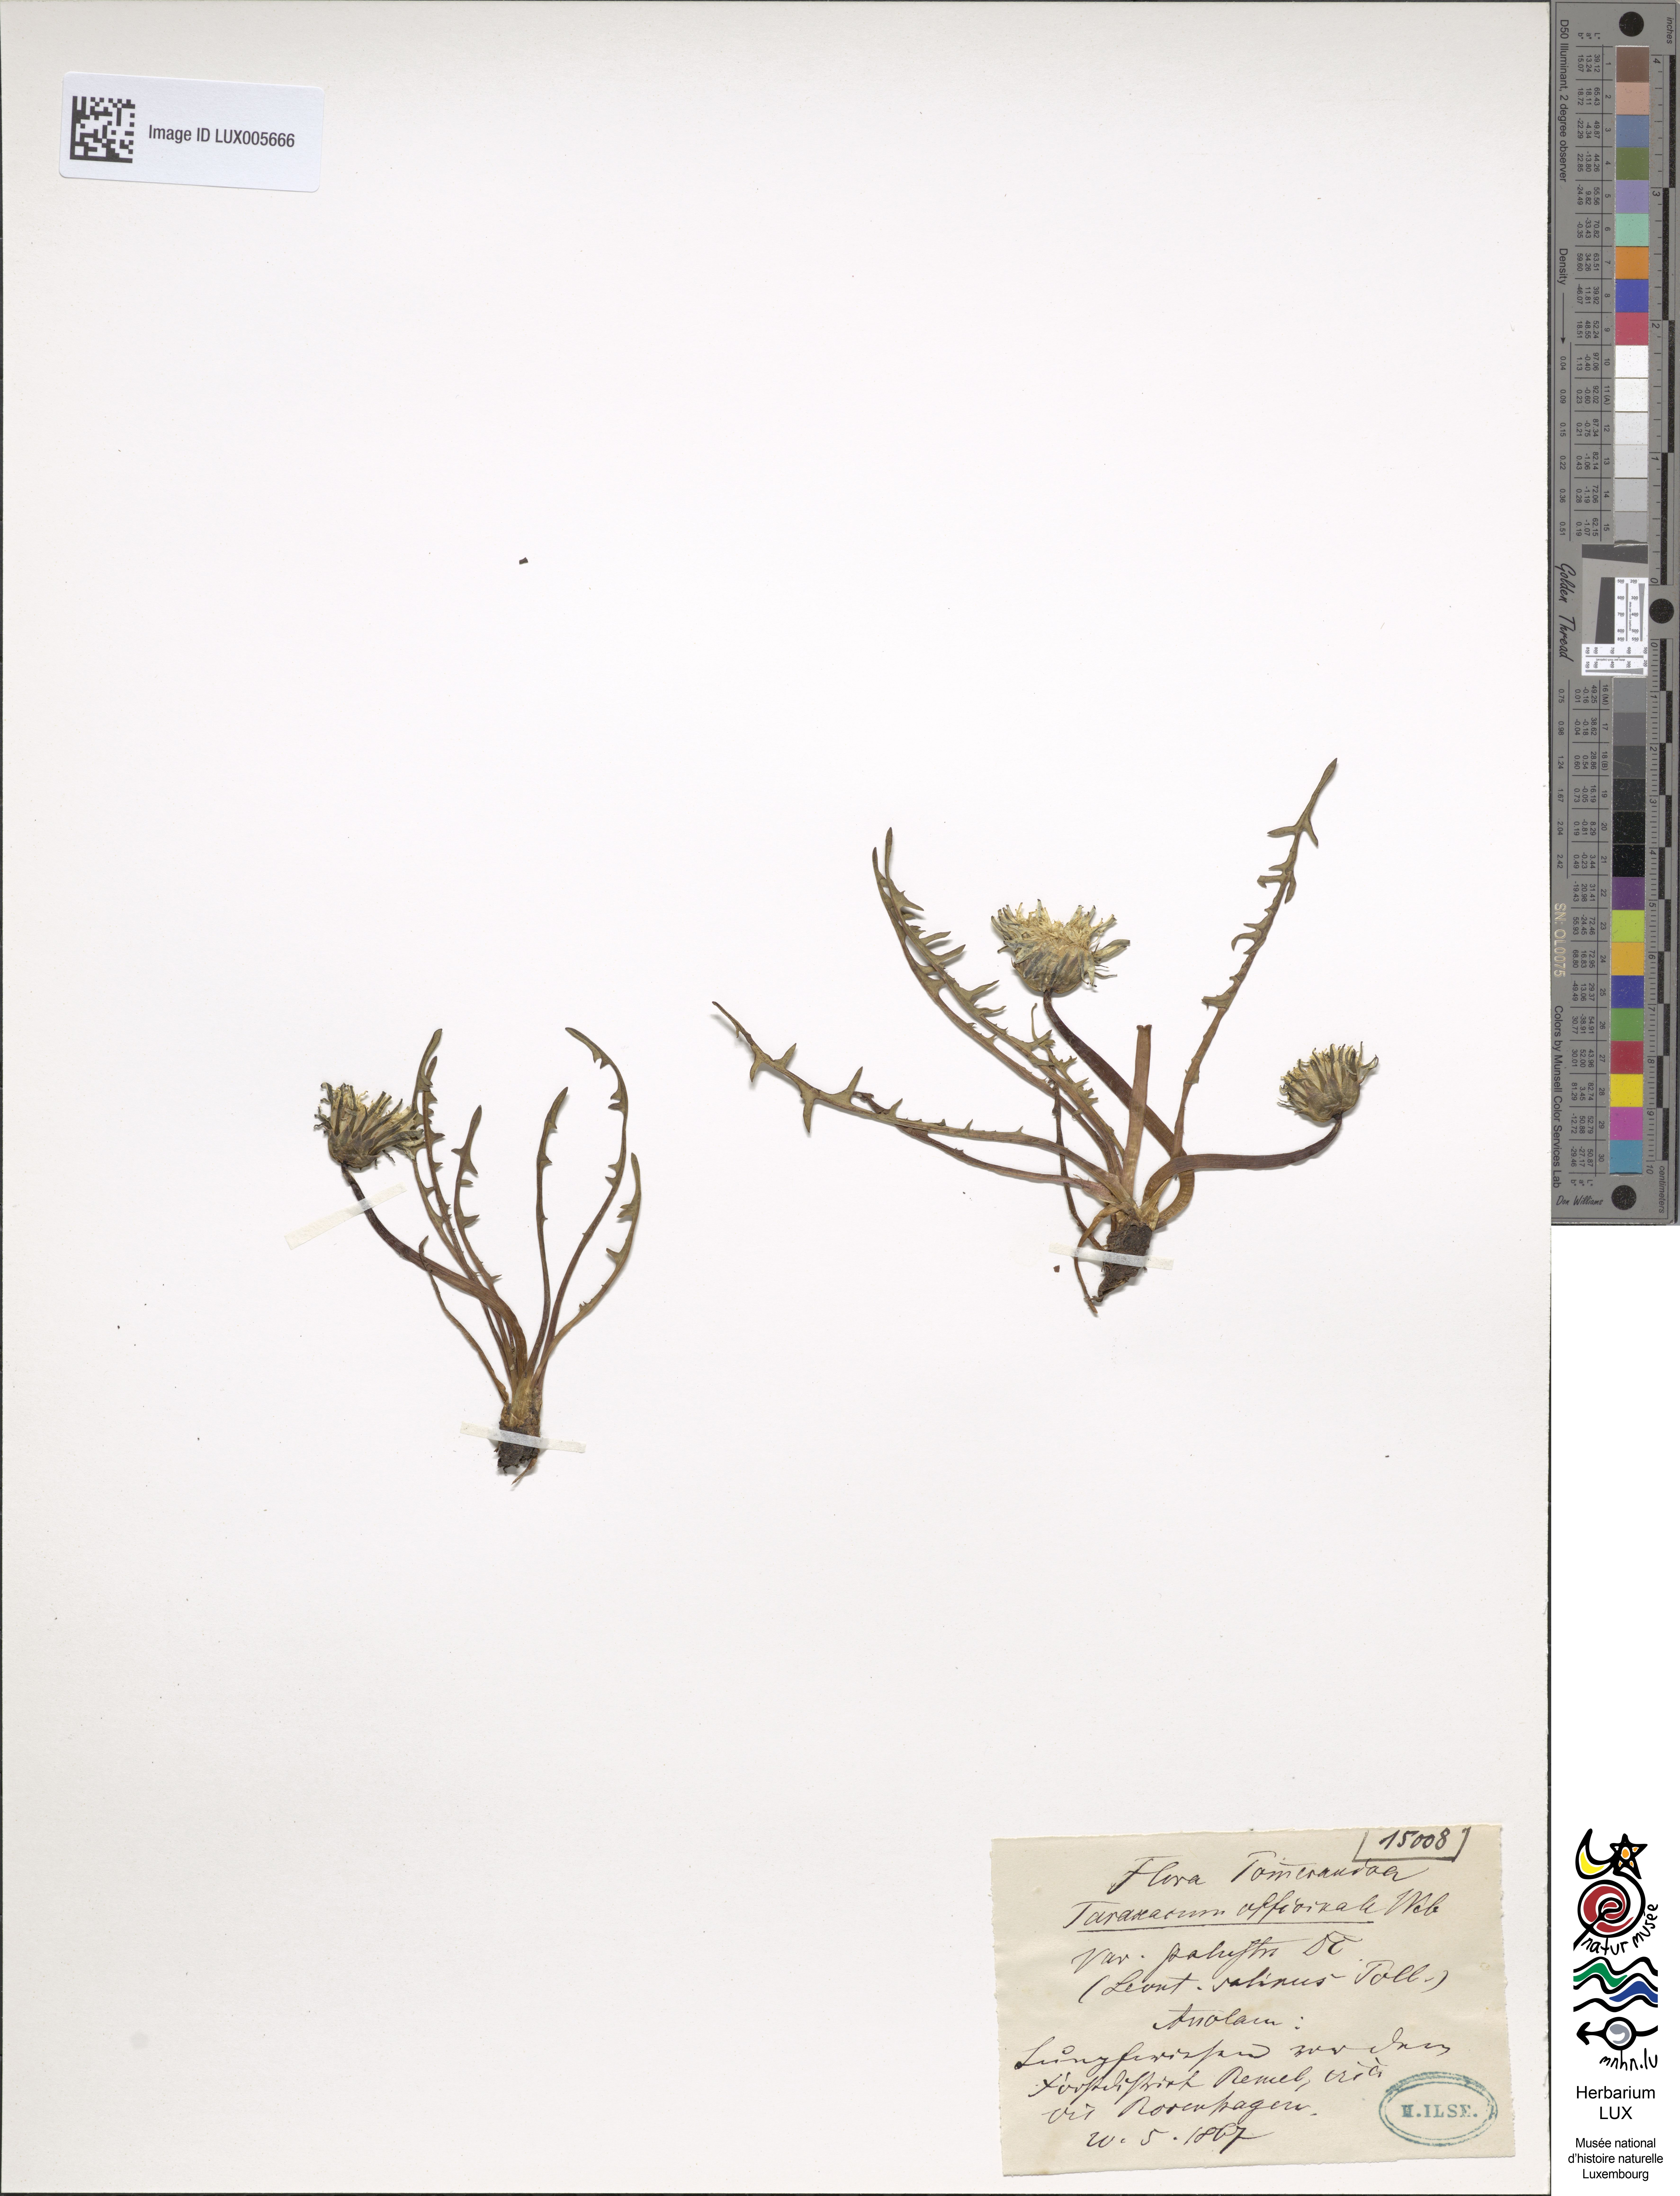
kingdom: Plantae
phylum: Tracheophyta
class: Magnoliopsida
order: Asterales
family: Asteraceae
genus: Taraxacum
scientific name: Taraxacum palustre
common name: Marsh dandelion
